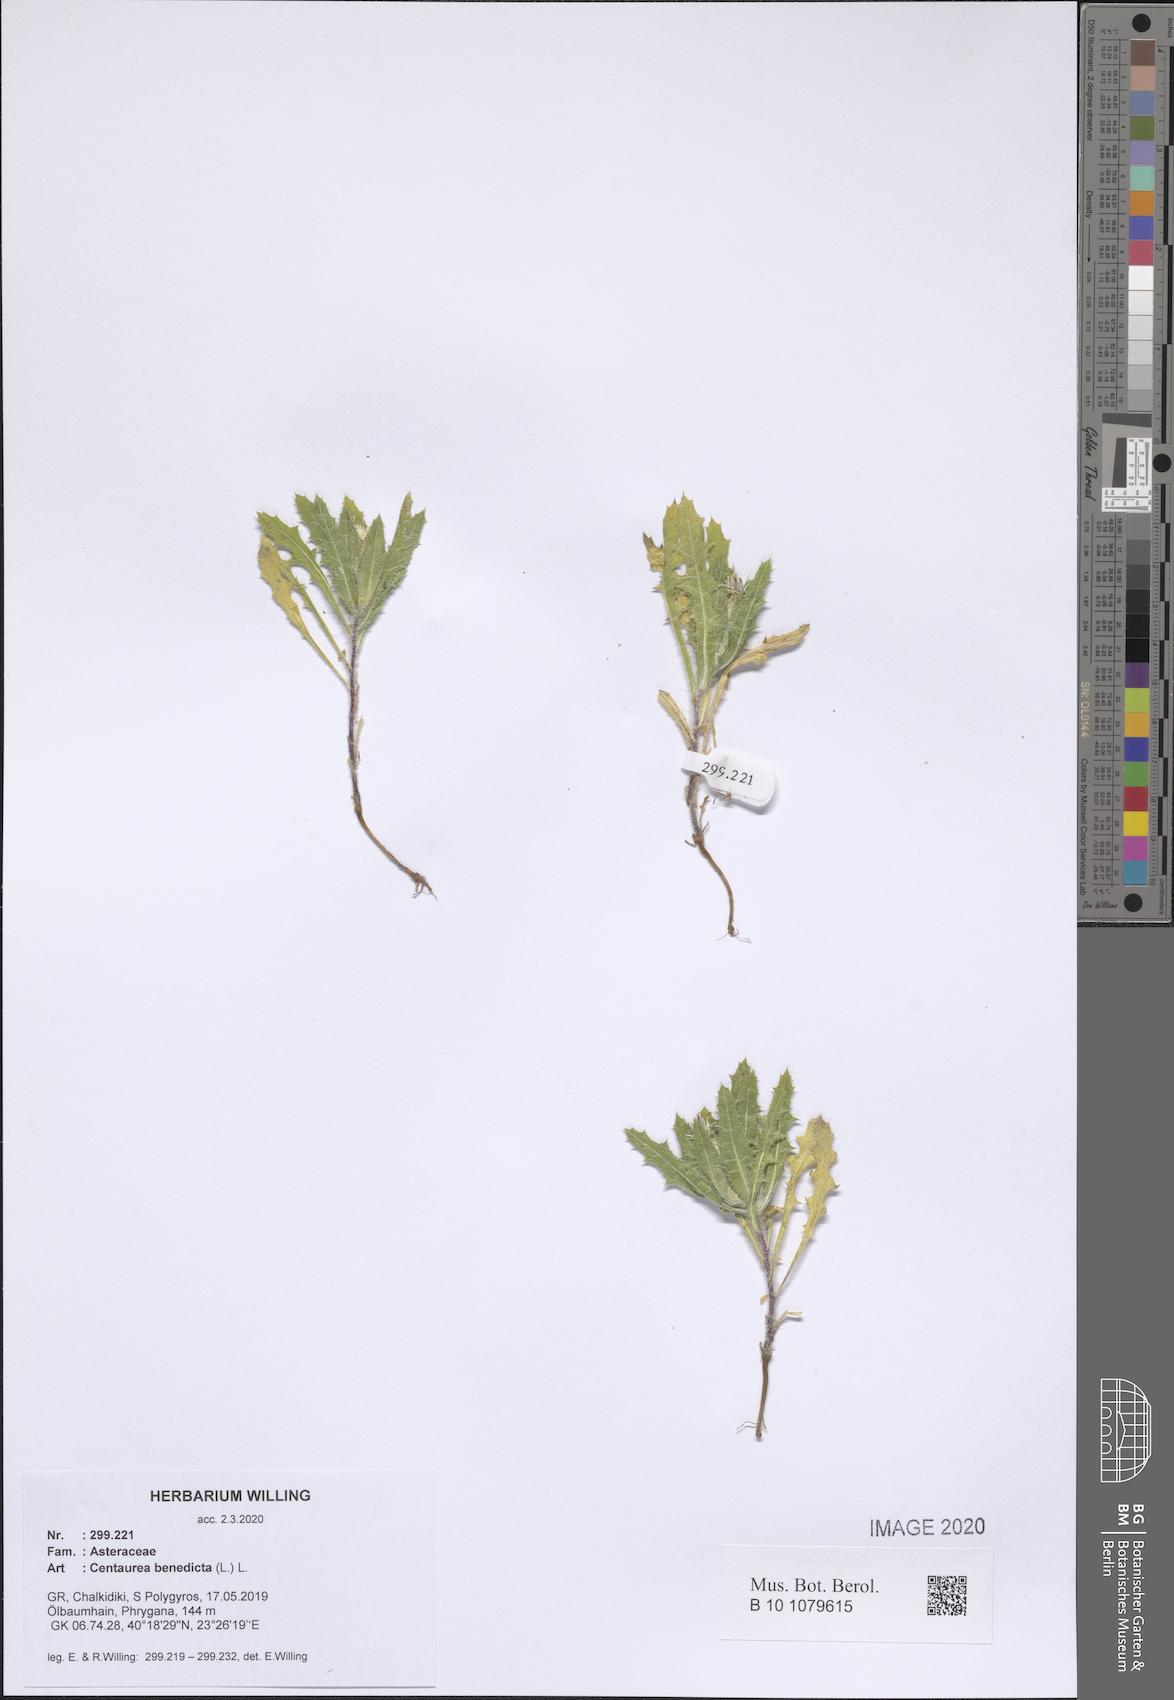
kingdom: Plantae
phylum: Tracheophyta
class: Magnoliopsida
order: Asterales
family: Asteraceae
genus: Centaurea
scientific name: Centaurea benedicta
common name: Blessed thistle
